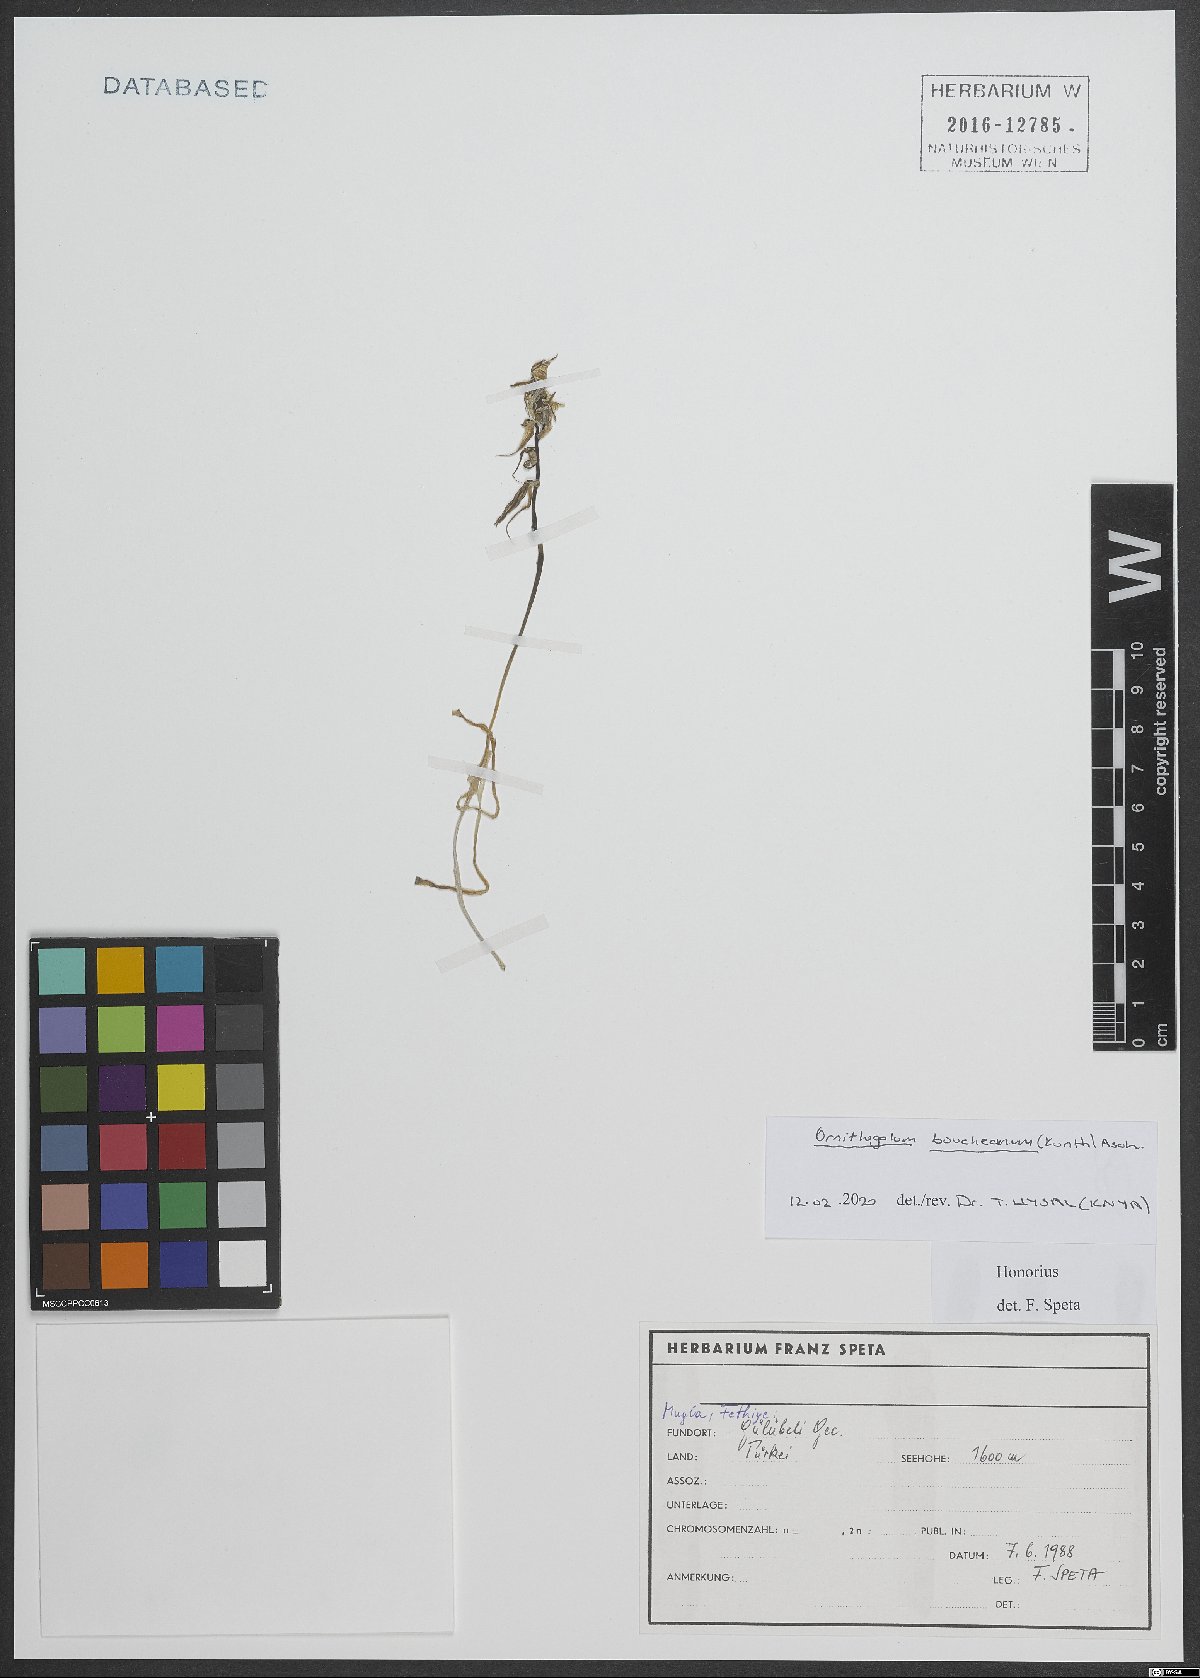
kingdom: Plantae
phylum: Tracheophyta
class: Liliopsida
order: Asparagales
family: Asparagaceae
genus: Ornithogalum
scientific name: Ornithogalum boucheanum
